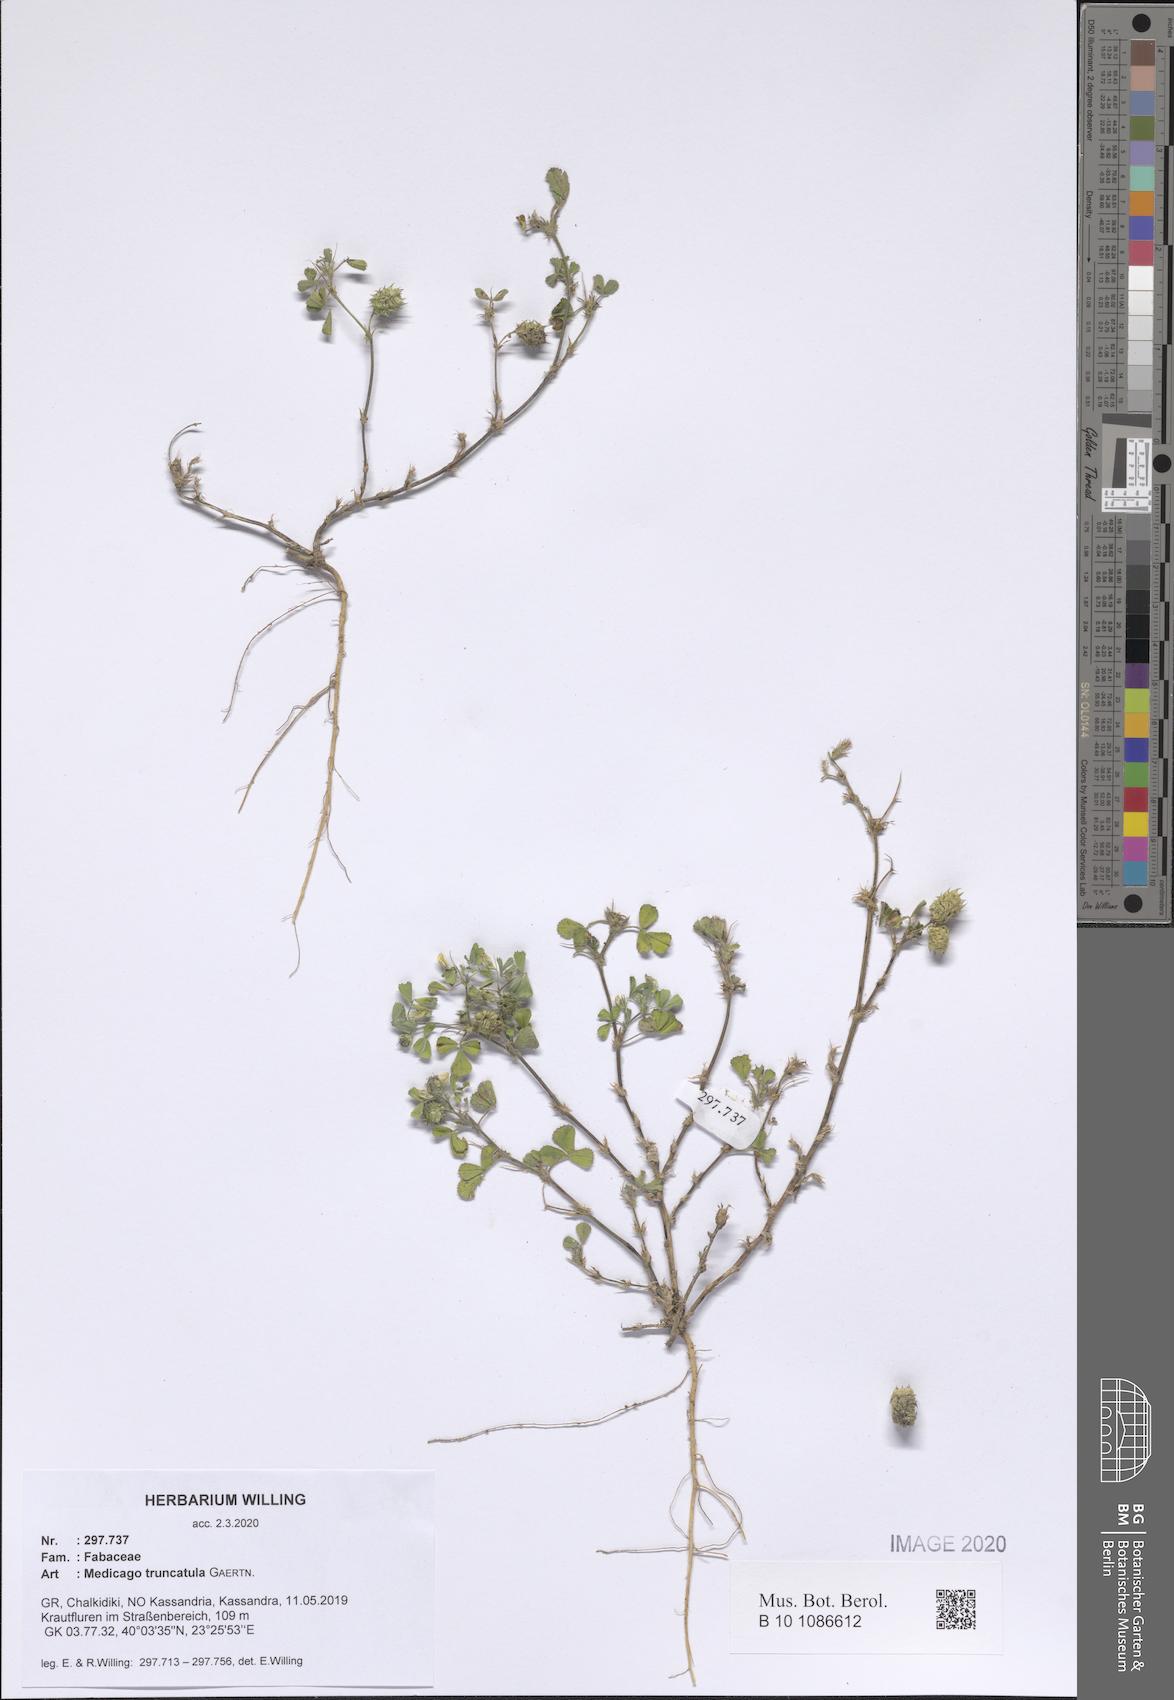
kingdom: Plantae
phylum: Tracheophyta
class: Magnoliopsida
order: Fabales
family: Fabaceae
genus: Medicago
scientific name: Medicago truncatula
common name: Strong-spined medick
